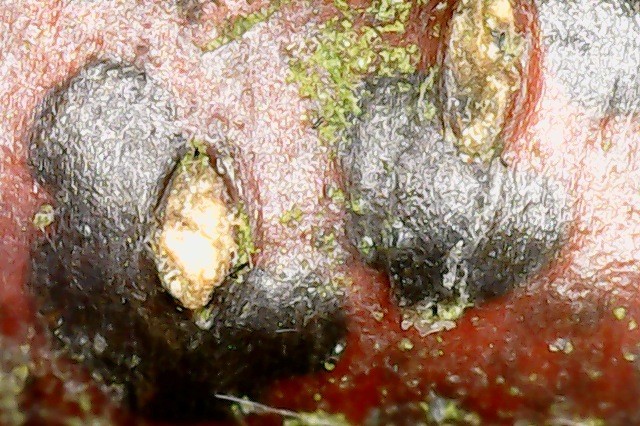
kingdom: Fungi
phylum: Ascomycota
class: Sordariomycetes
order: Diaporthales
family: Melanconidaceae
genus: Melanconis
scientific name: Melanconis stilbostoma
